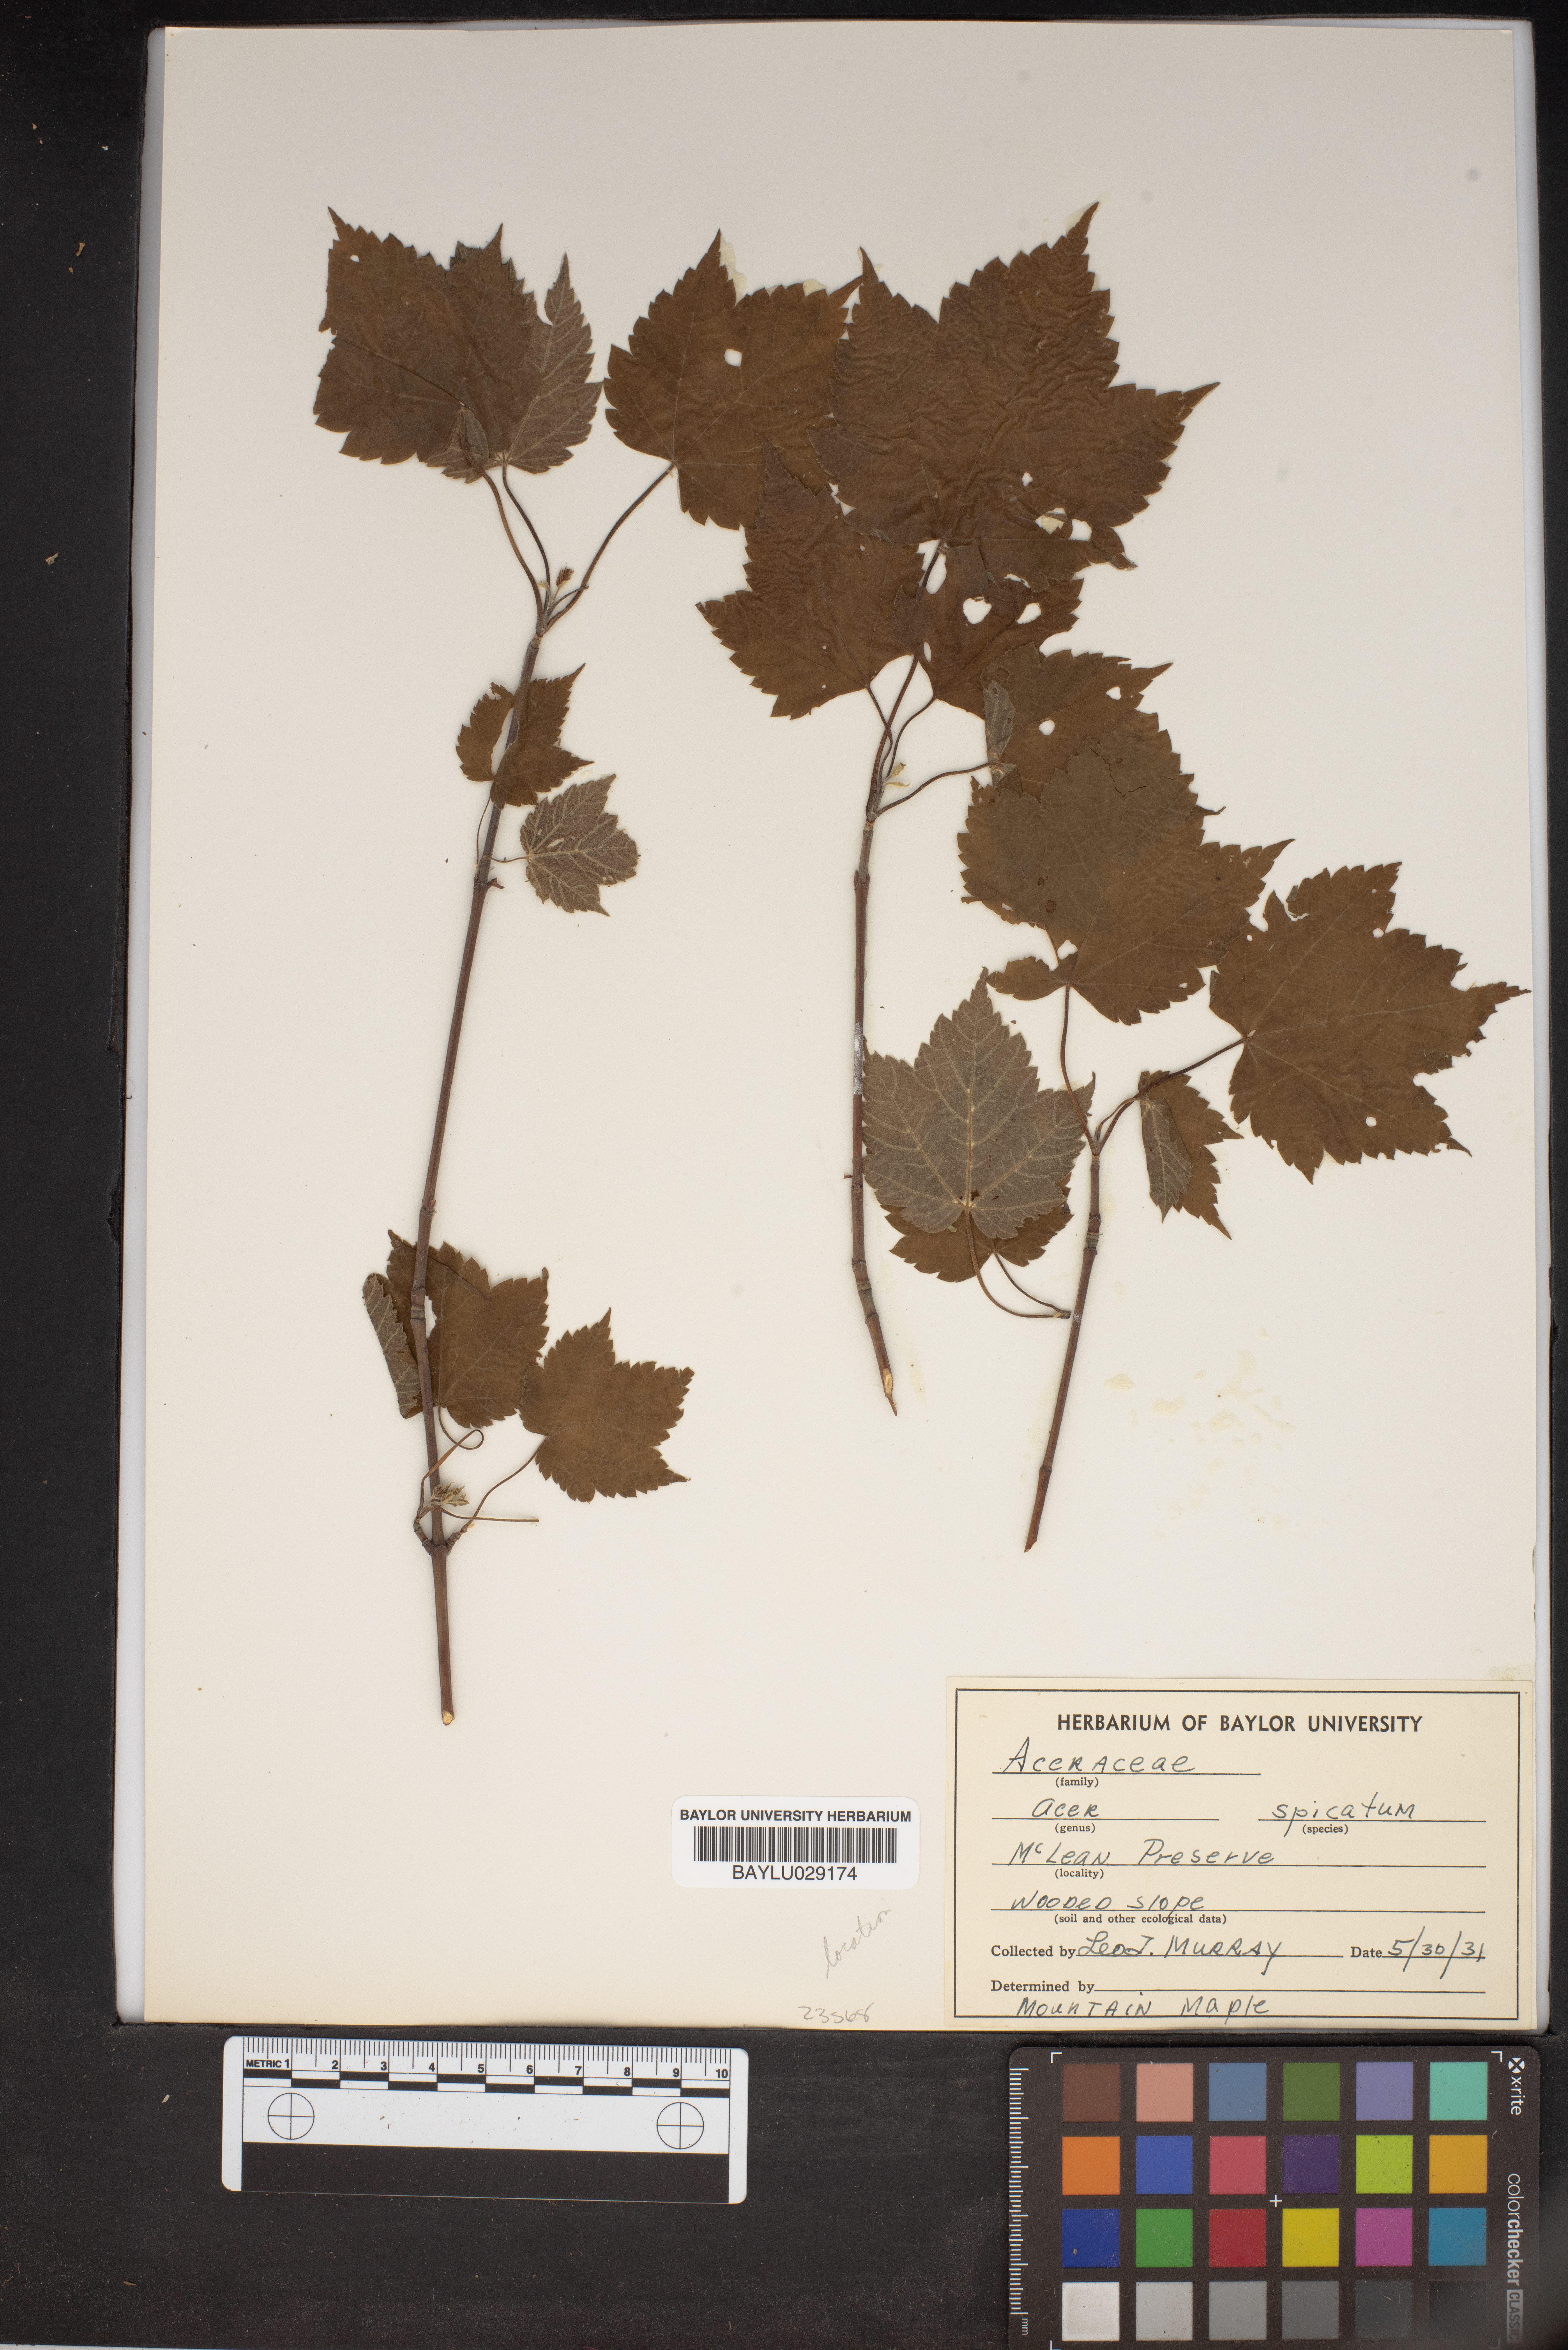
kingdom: Plantae
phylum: Tracheophyta
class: Magnoliopsida
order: Sapindales
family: Sapindaceae
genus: Acer
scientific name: Acer spicatum
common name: Mountain maple
